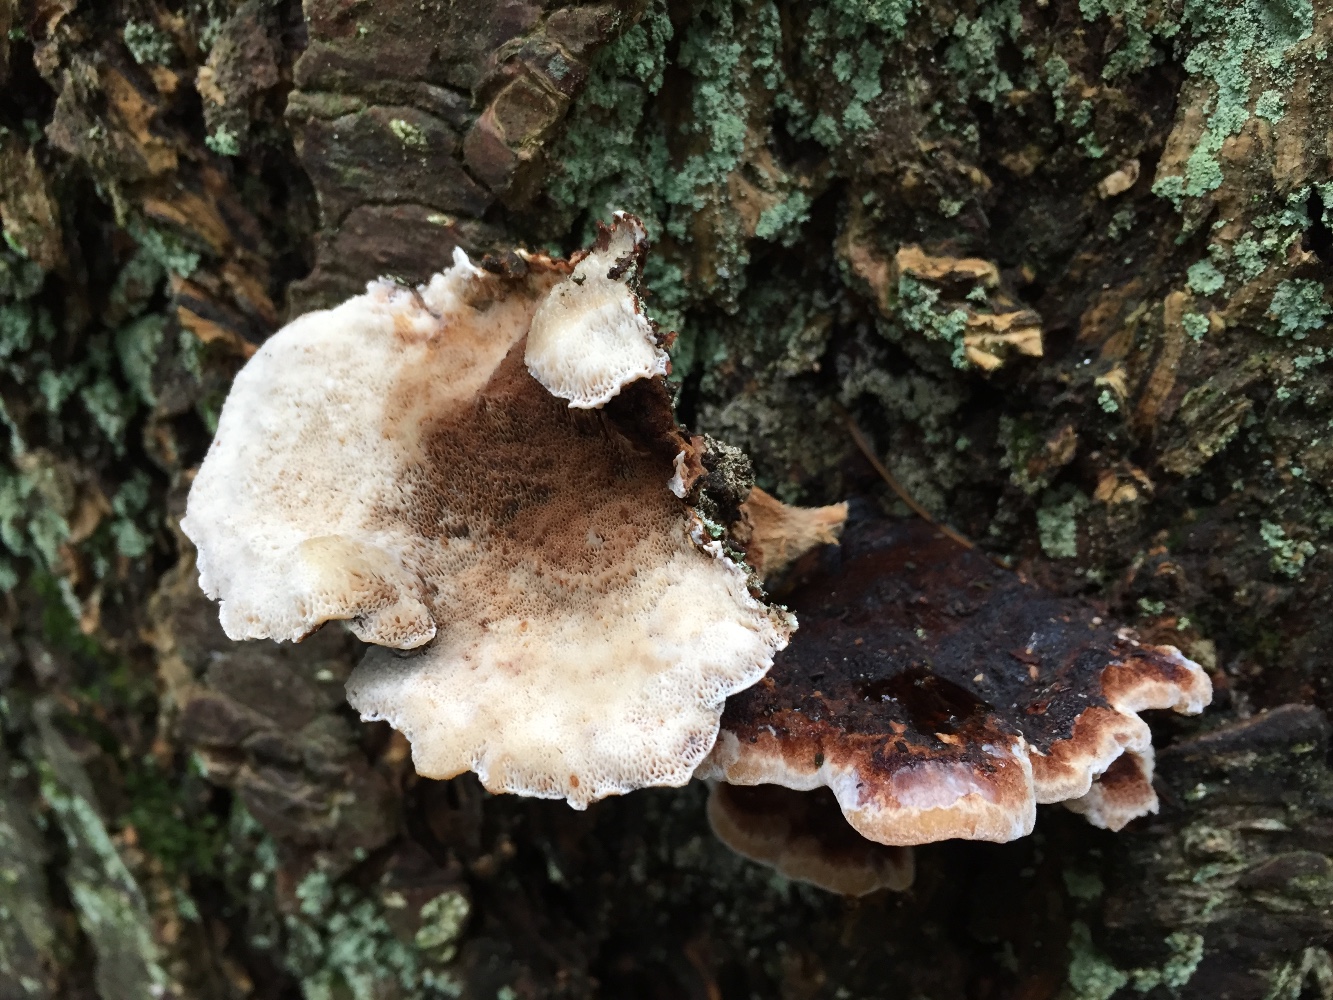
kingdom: Fungi
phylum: Basidiomycota
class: Agaricomycetes
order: Polyporales
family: Ischnodermataceae
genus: Ischnoderma
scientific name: Ischnoderma benzoinum
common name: gran-tjæreporesvamp
